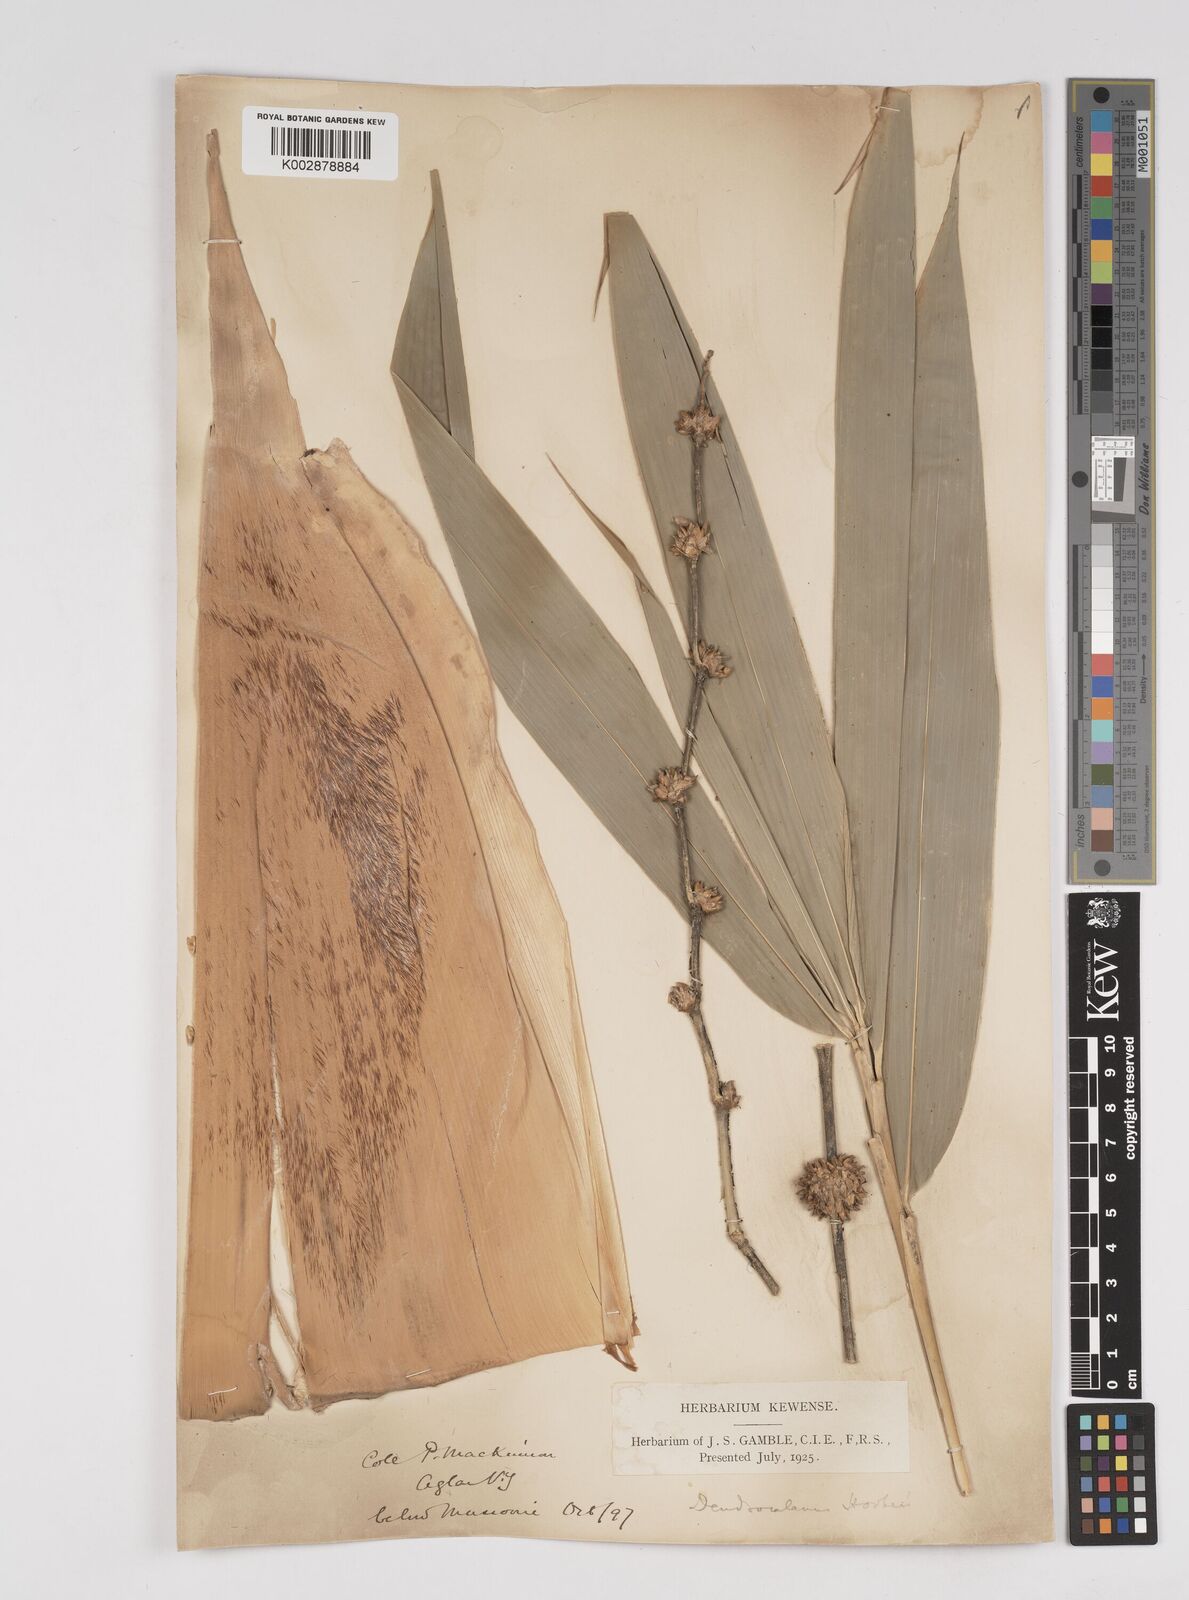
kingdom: Plantae
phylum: Tracheophyta
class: Liliopsida
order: Poales
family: Poaceae
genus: Dendrocalamus
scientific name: Dendrocalamus hookeri
